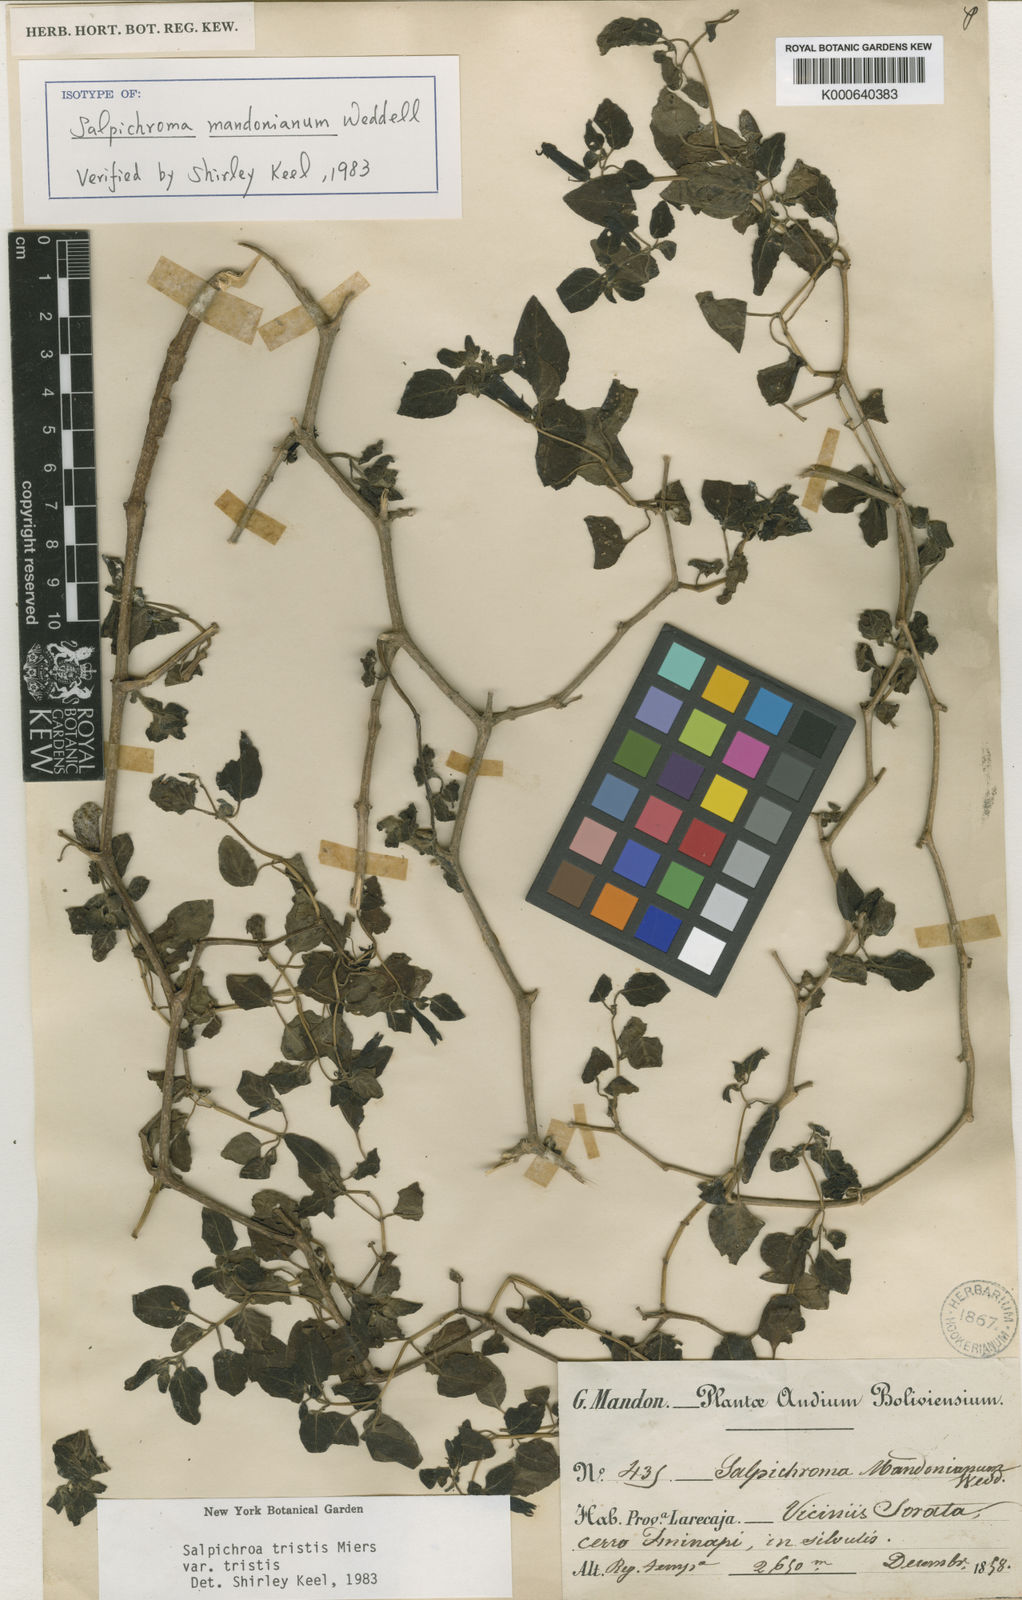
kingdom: Plantae
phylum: Tracheophyta
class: Magnoliopsida
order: Solanales
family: Solanaceae
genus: Salpichroa
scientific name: Salpichroa
